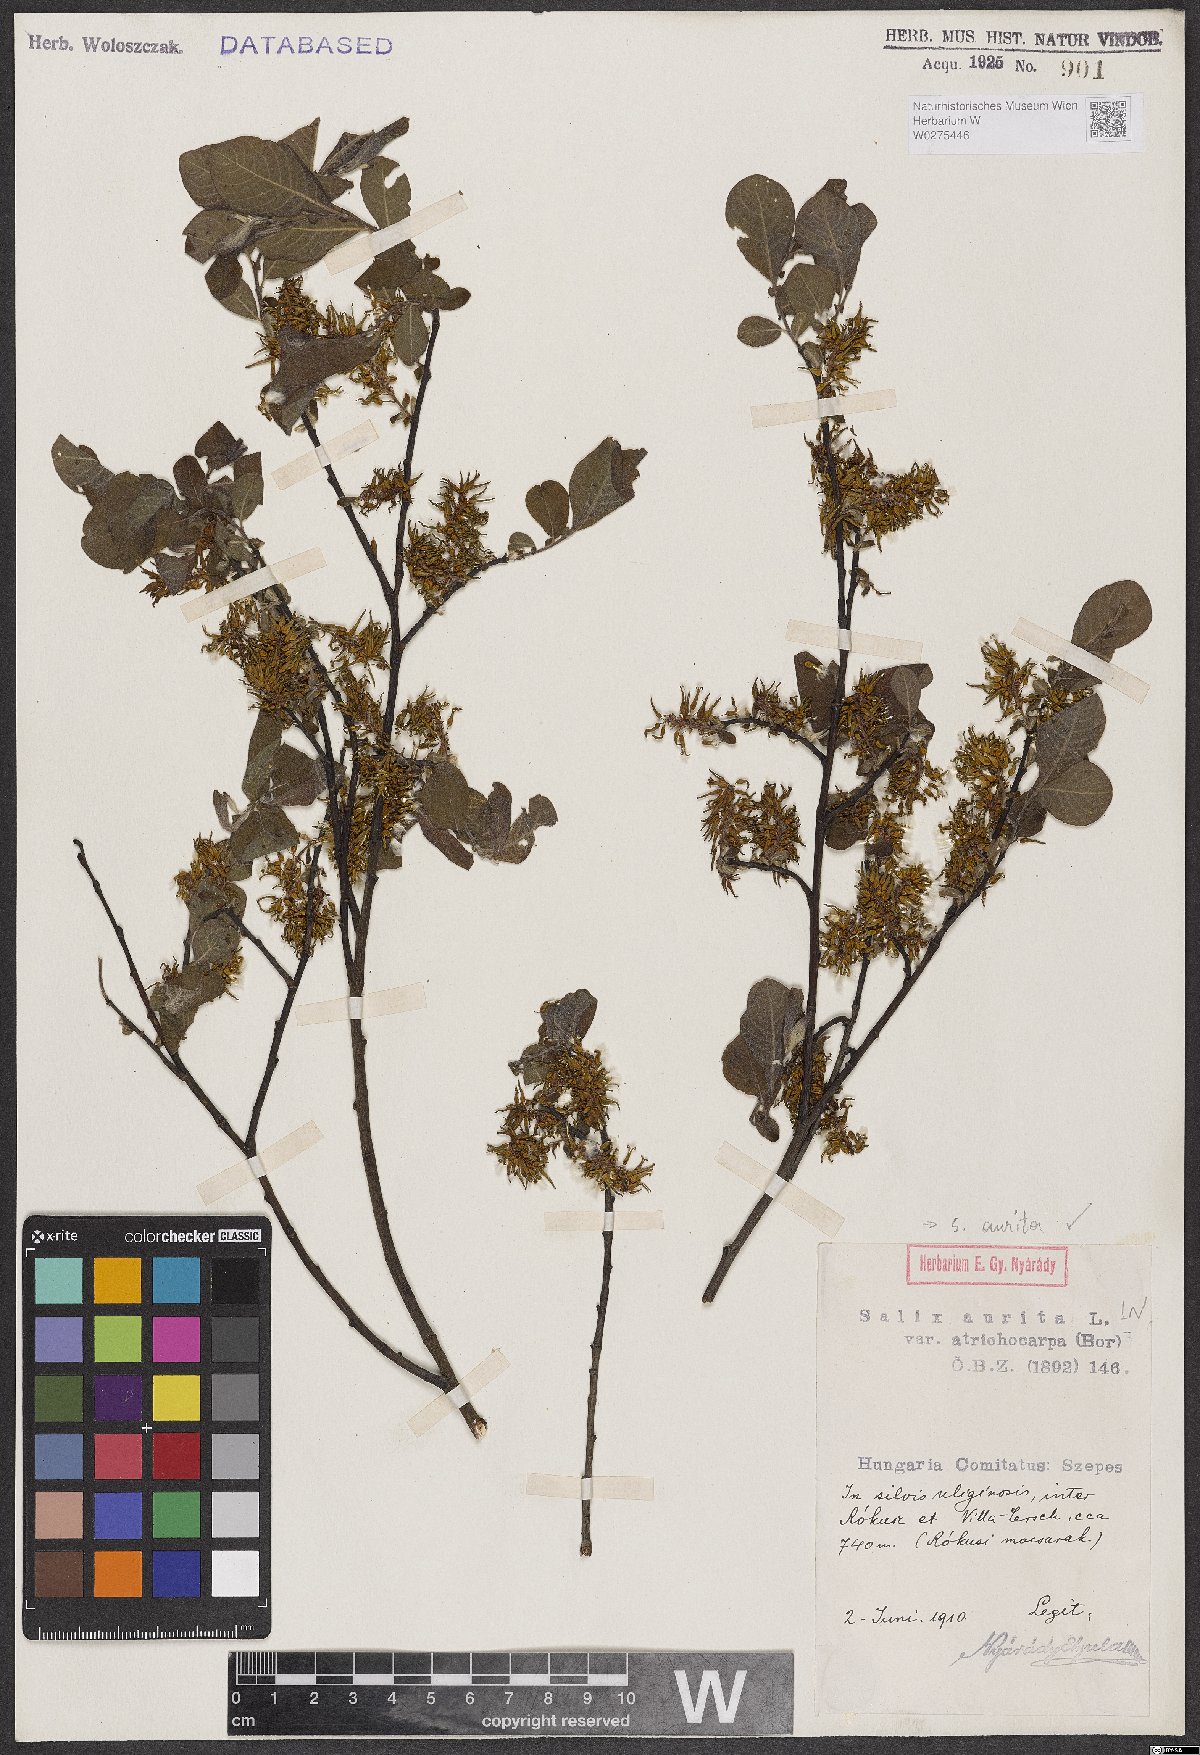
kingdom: Plantae
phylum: Tracheophyta
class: Magnoliopsida
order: Malpighiales
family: Salicaceae
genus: Salix
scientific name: Salix aurita
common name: Eared willow
